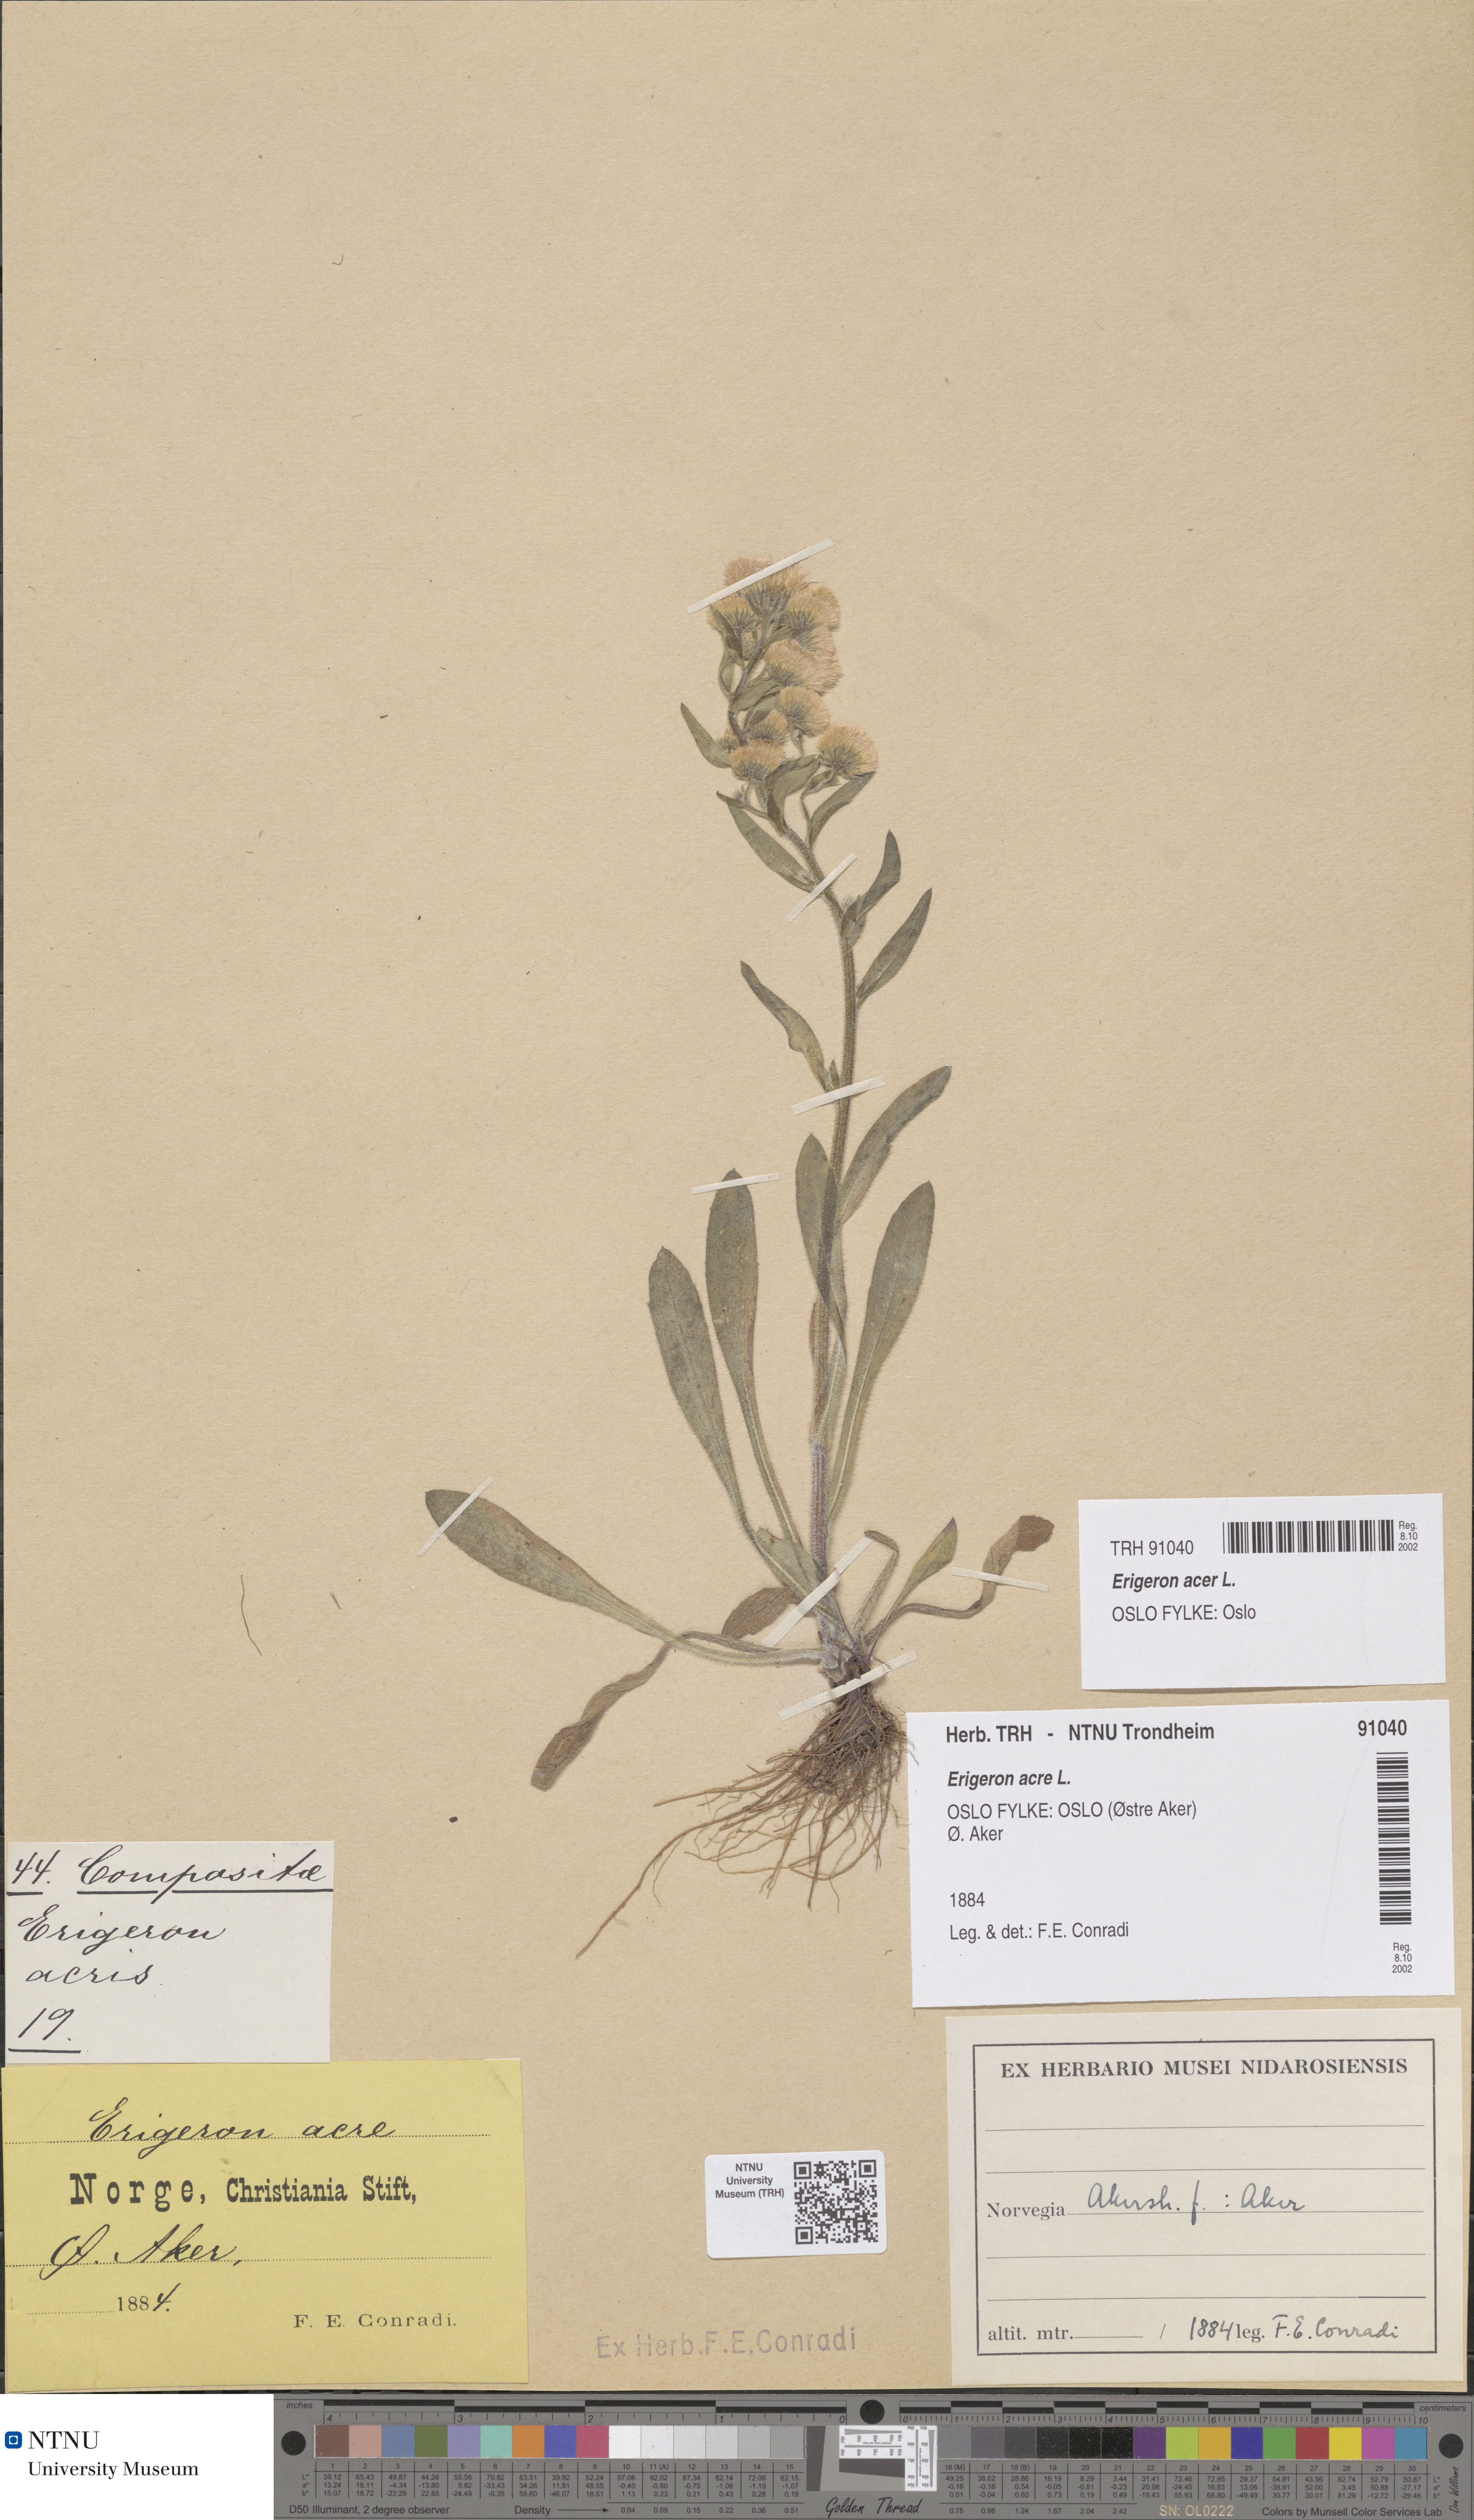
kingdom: Plantae
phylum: Tracheophyta
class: Magnoliopsida
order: Asterales
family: Asteraceae
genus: Erigeron
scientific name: Erigeron acris
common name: Blue fleabane
